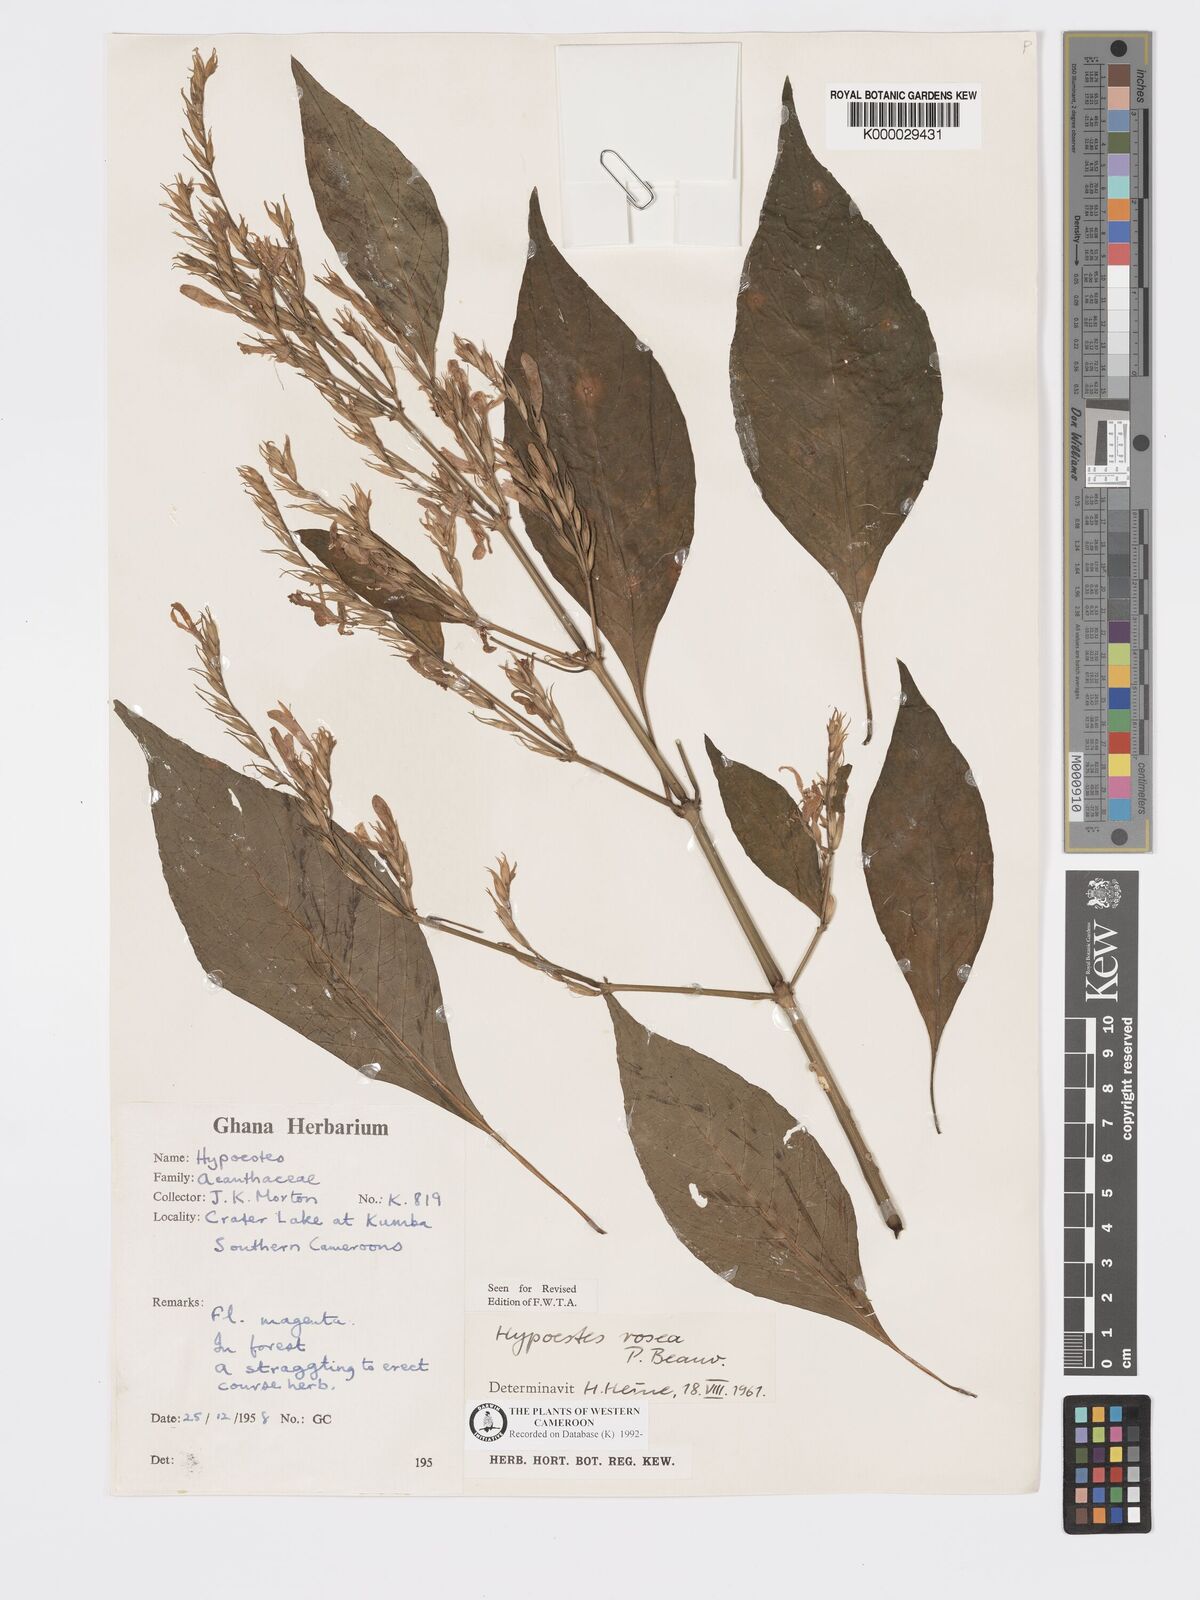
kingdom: Plantae
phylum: Tracheophyta
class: Magnoliopsida
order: Lamiales
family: Acanthaceae
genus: Hypoestes
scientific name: Hypoestes rosea
